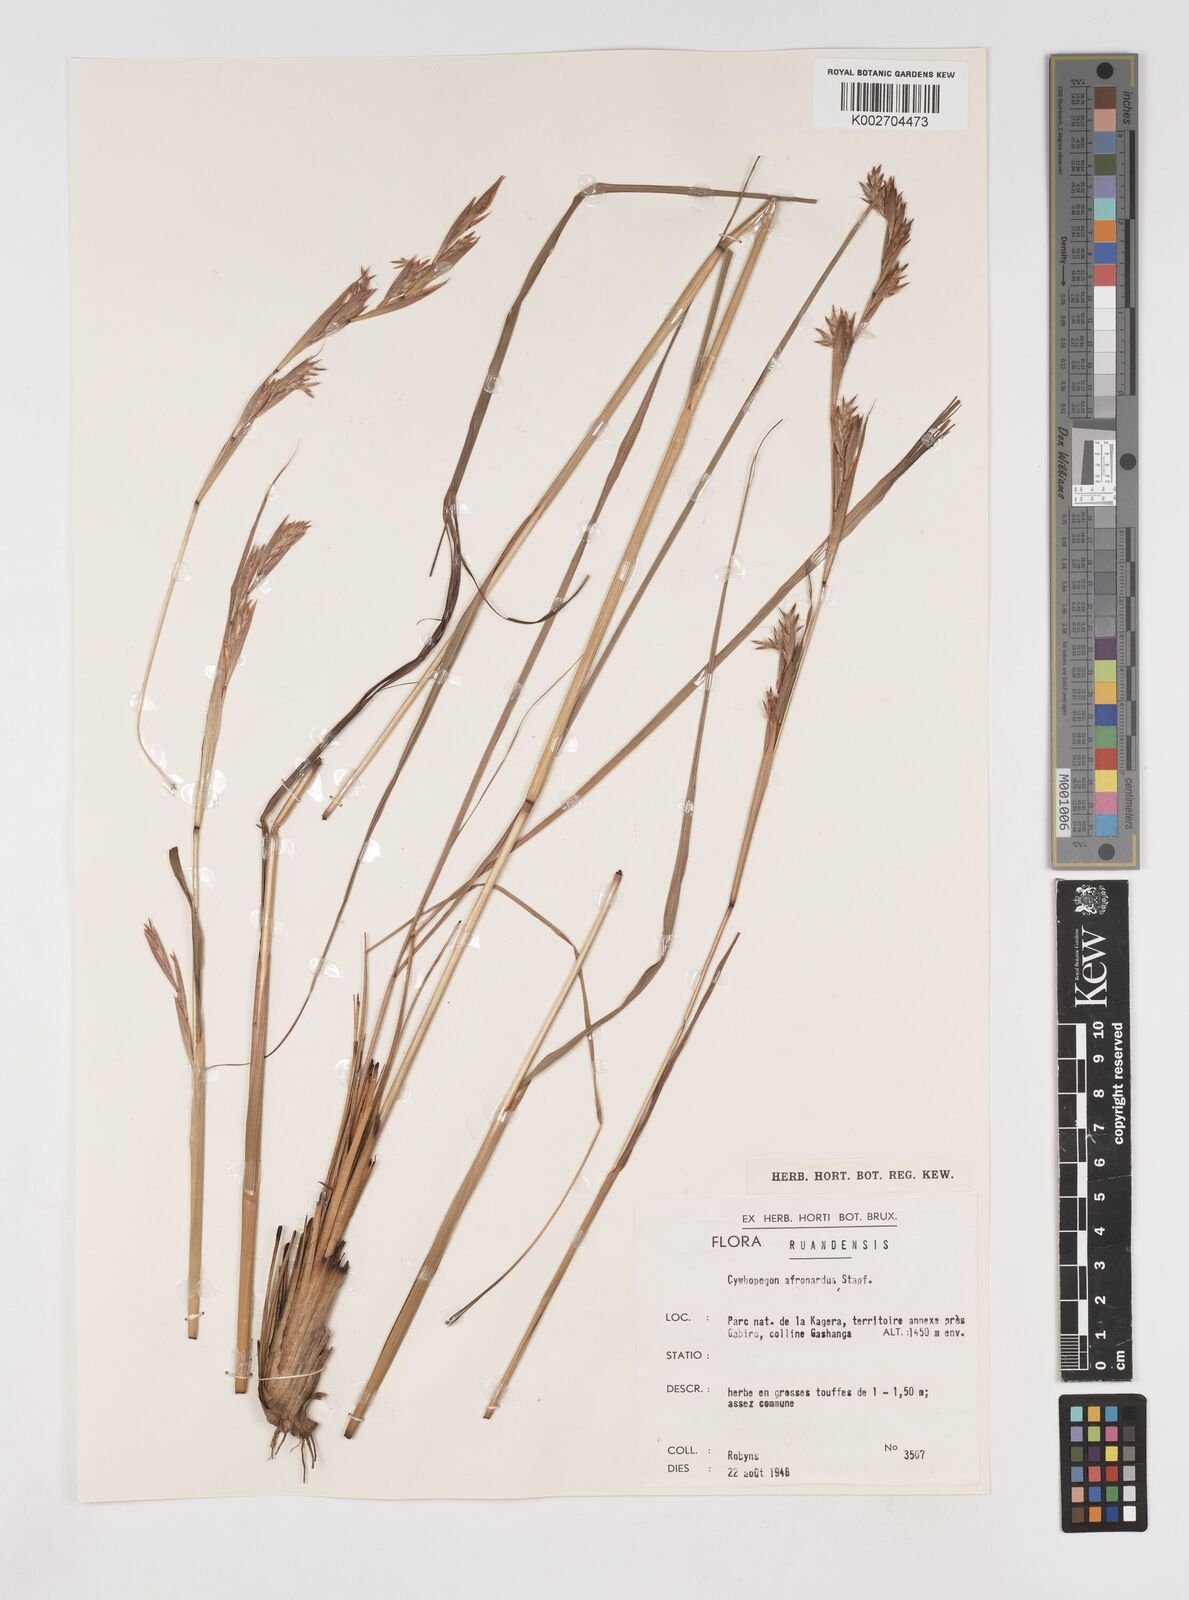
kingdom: Plantae
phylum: Tracheophyta
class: Liliopsida
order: Poales
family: Poaceae
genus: Cymbopogon
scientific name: Cymbopogon nardus
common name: Giant turpentine grass
